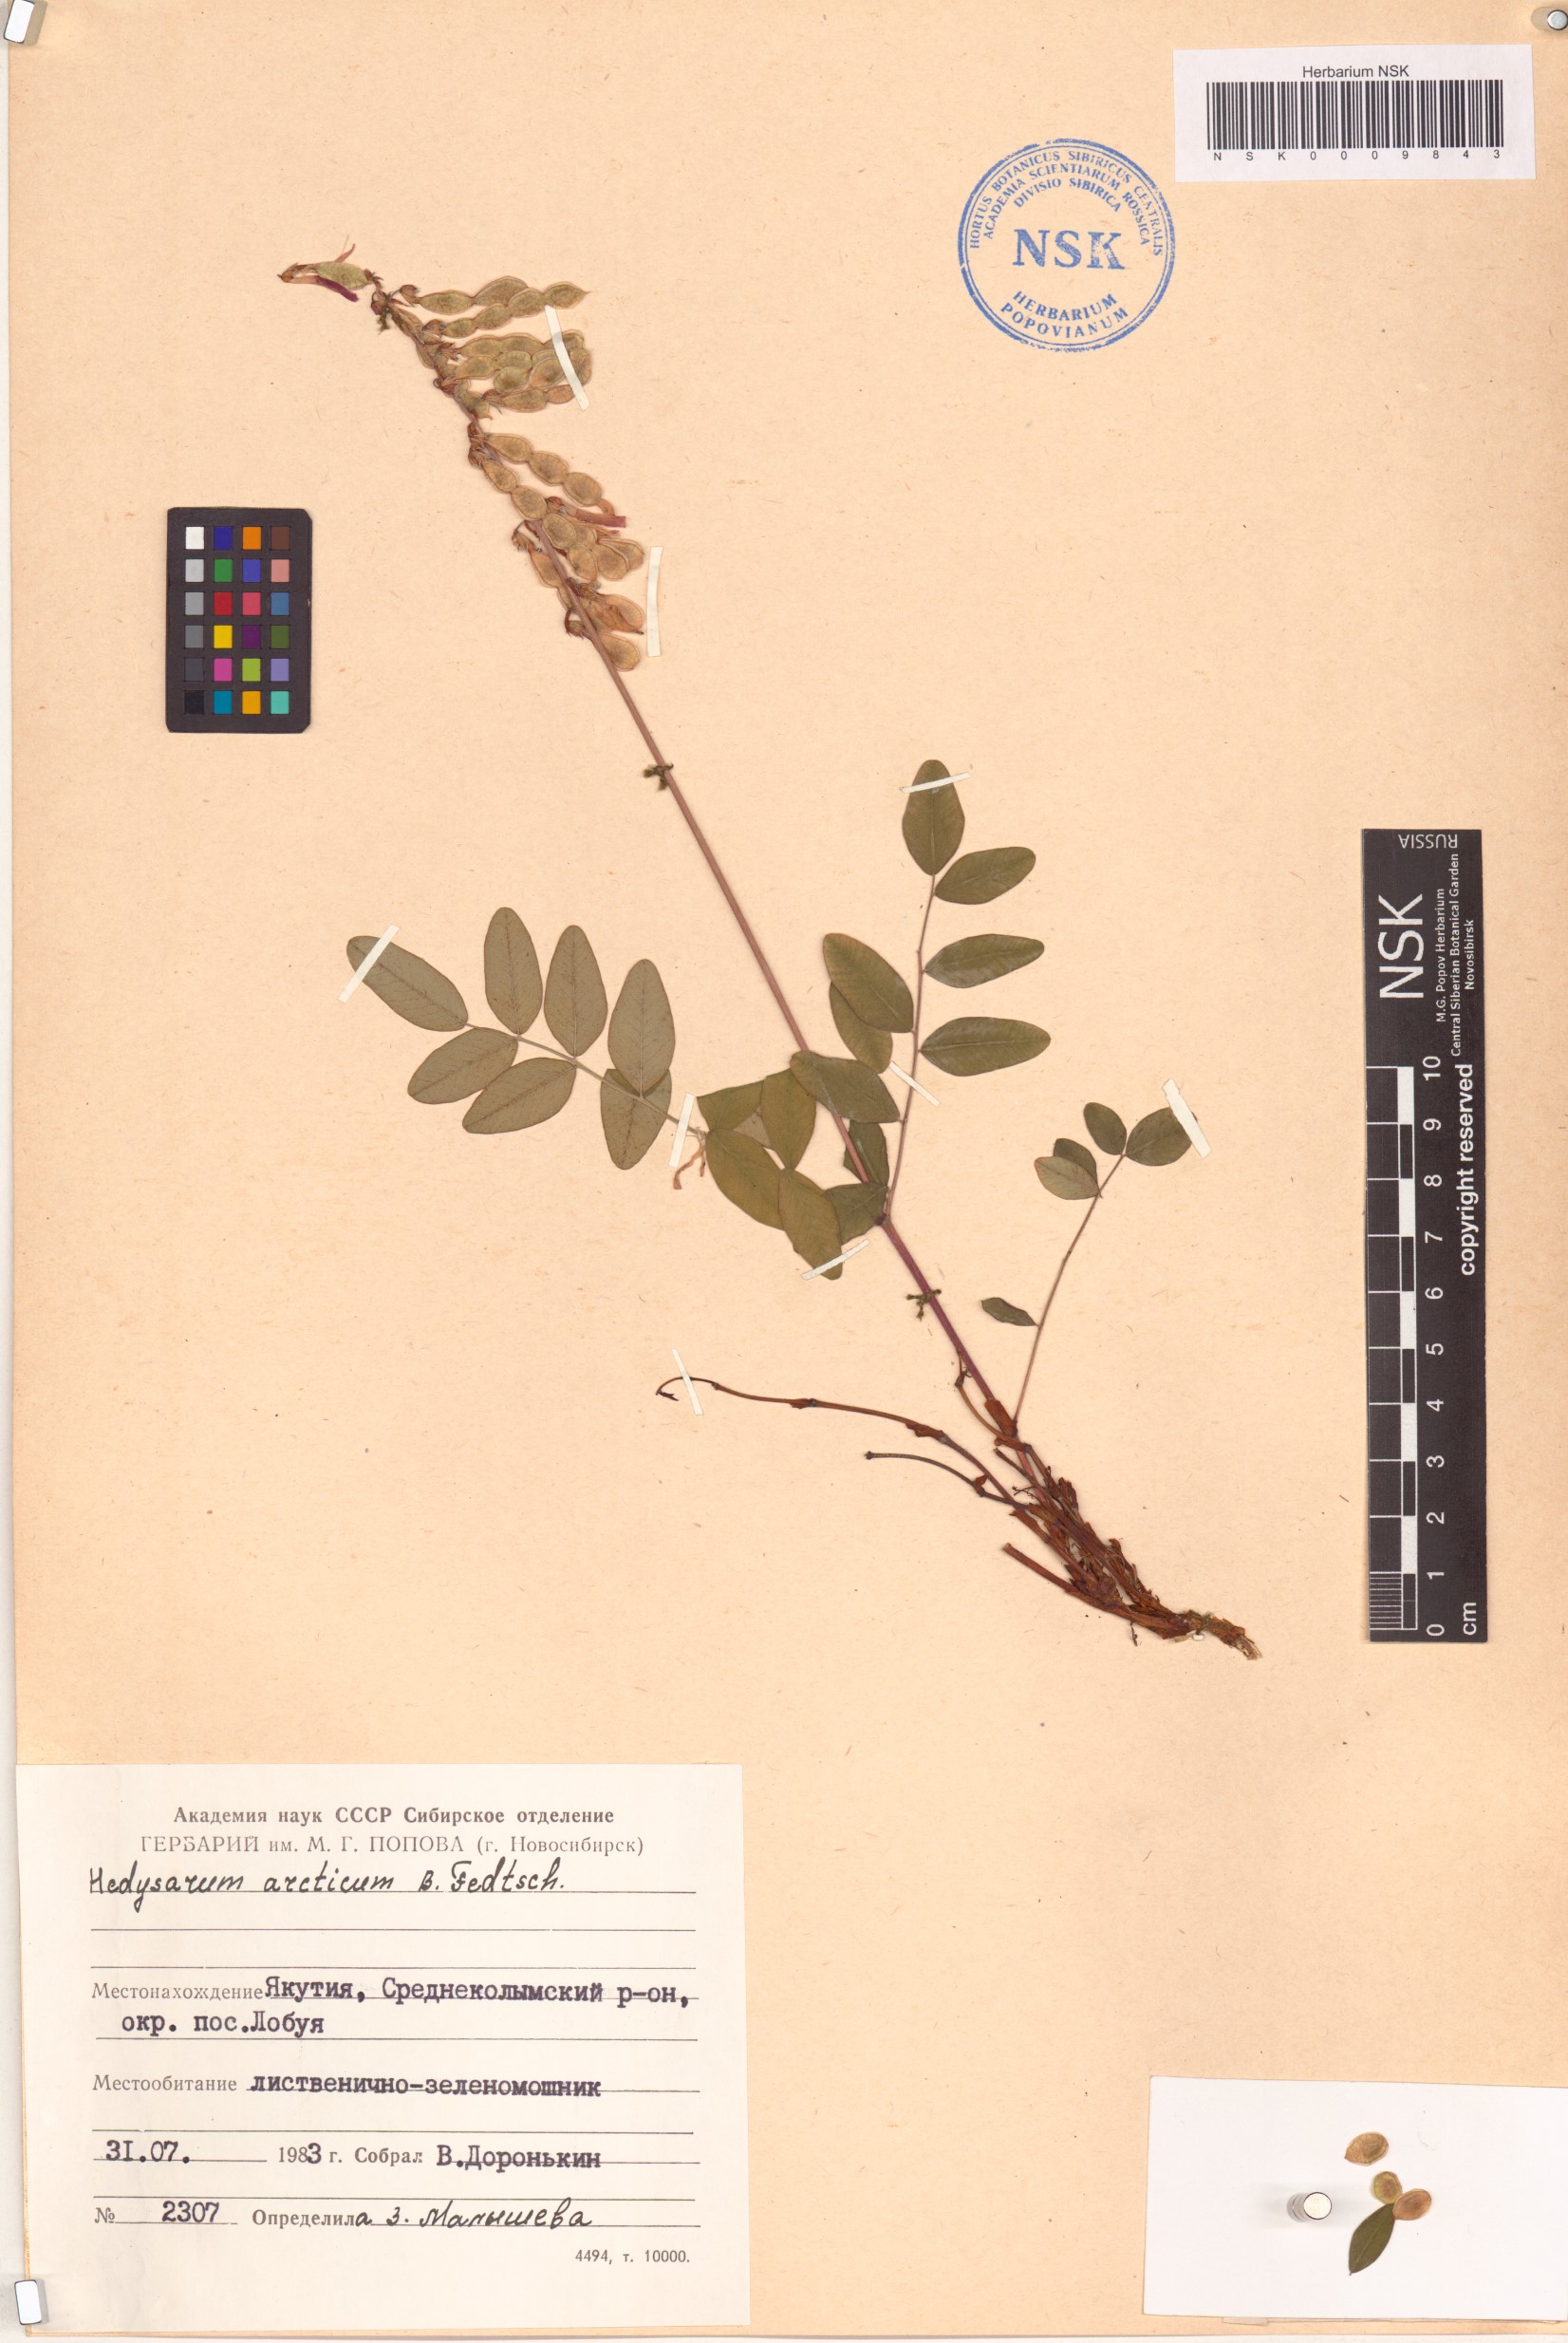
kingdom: Plantae
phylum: Tracheophyta
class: Magnoliopsida
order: Fabales
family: Fabaceae
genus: Hedysarum
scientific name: Hedysarum hedysaroides
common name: Alpine french-honeysuckle
